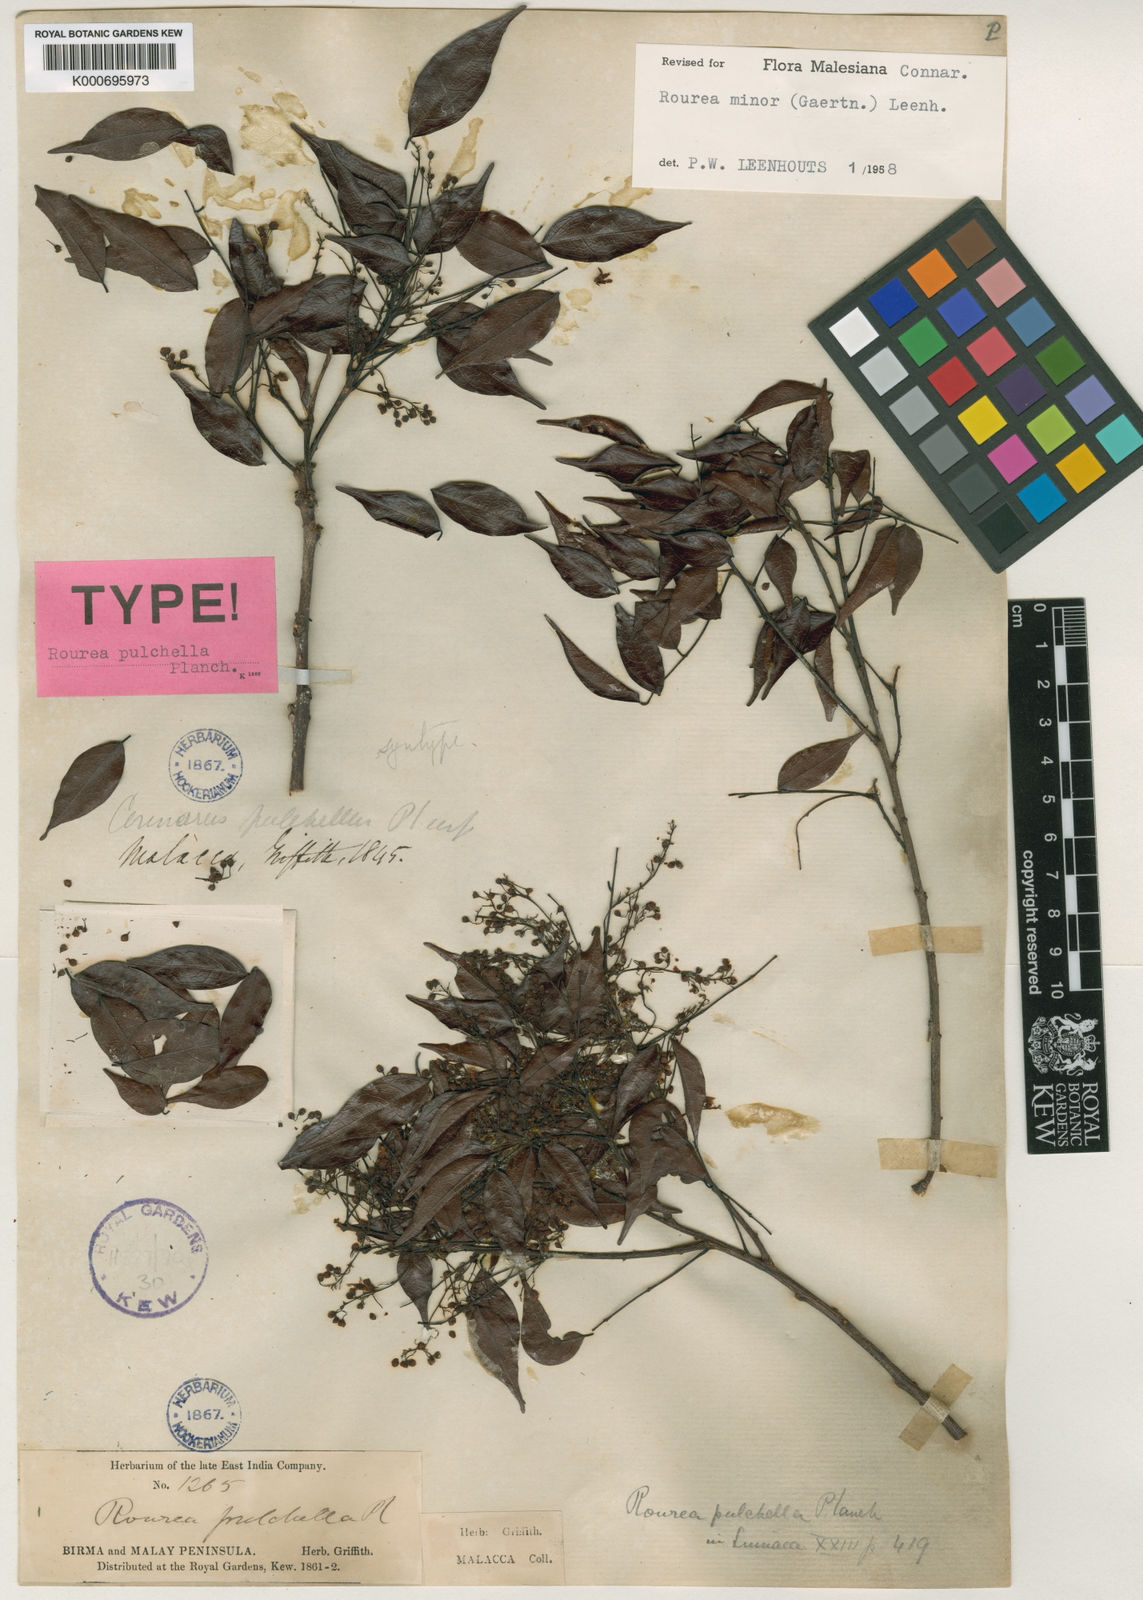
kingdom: Plantae
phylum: Tracheophyta
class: Magnoliopsida
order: Oxalidales
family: Connaraceae
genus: Rourea
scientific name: Rourea
